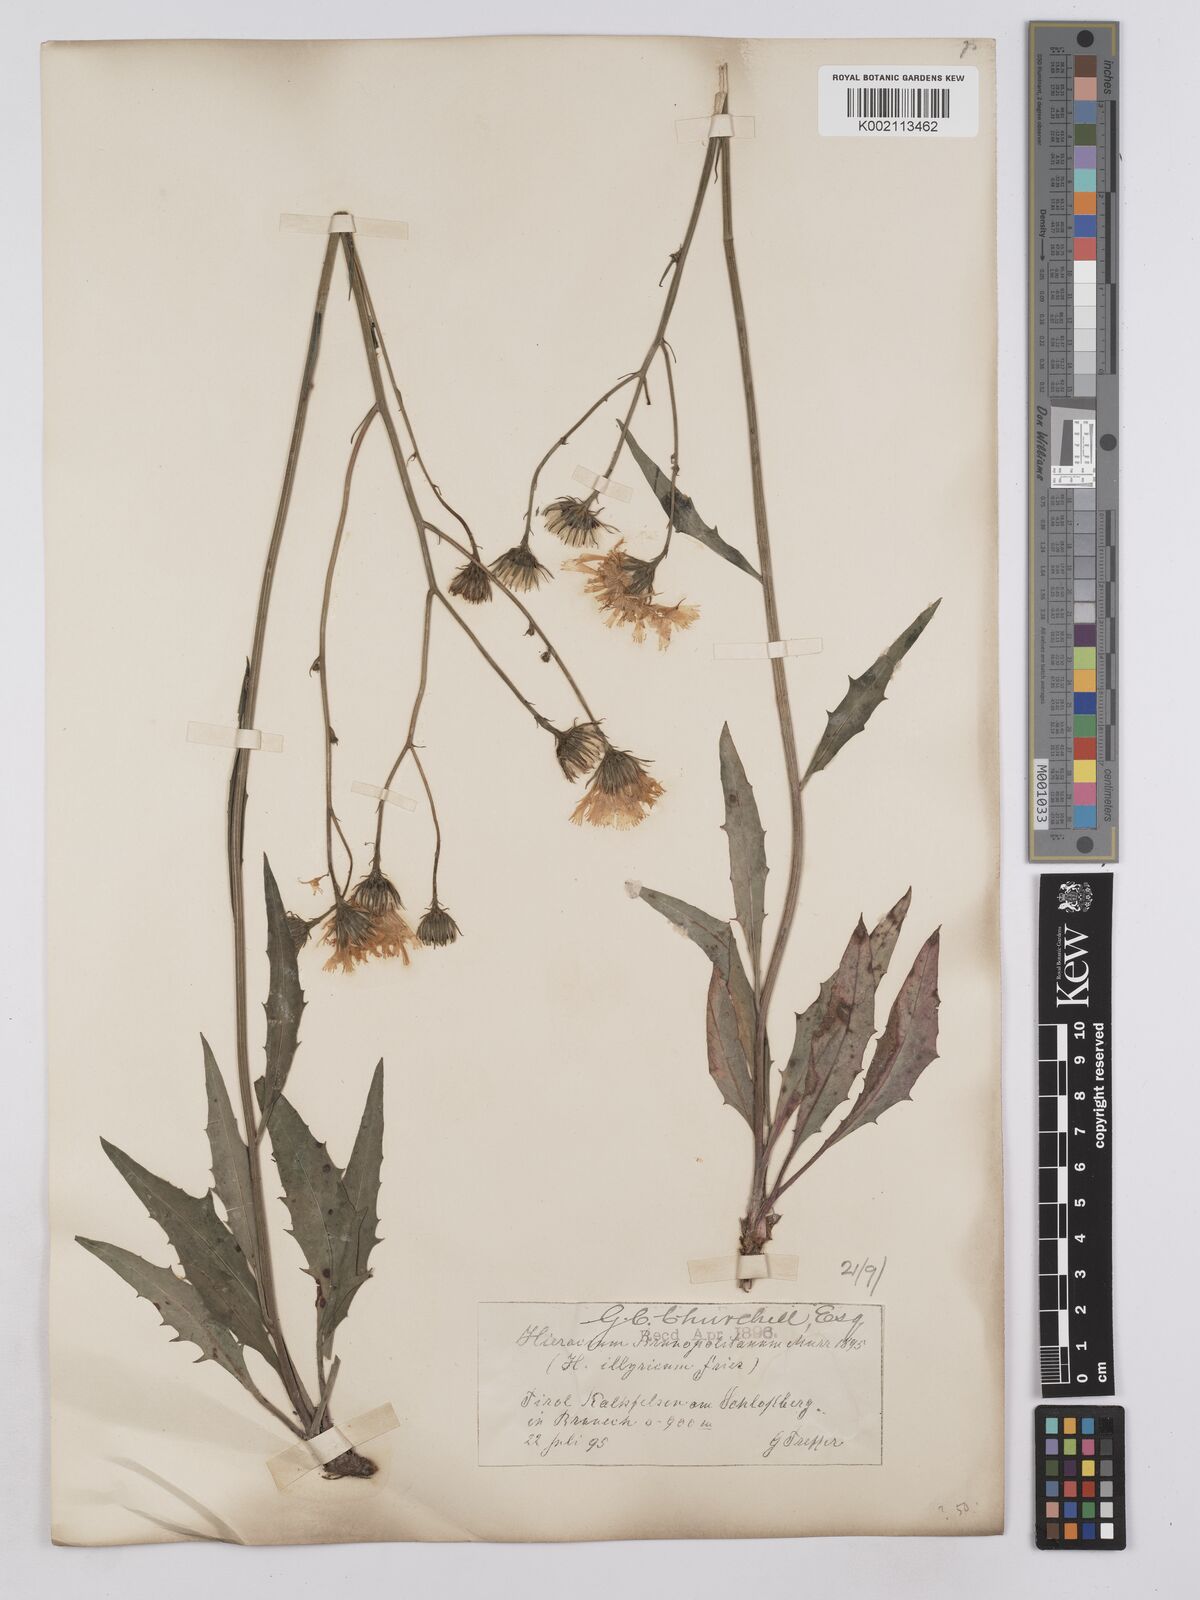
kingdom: Plantae
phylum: Tracheophyta
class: Magnoliopsida
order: Asterales
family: Asteraceae
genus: Hieracium
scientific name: Hieracium calcareum
